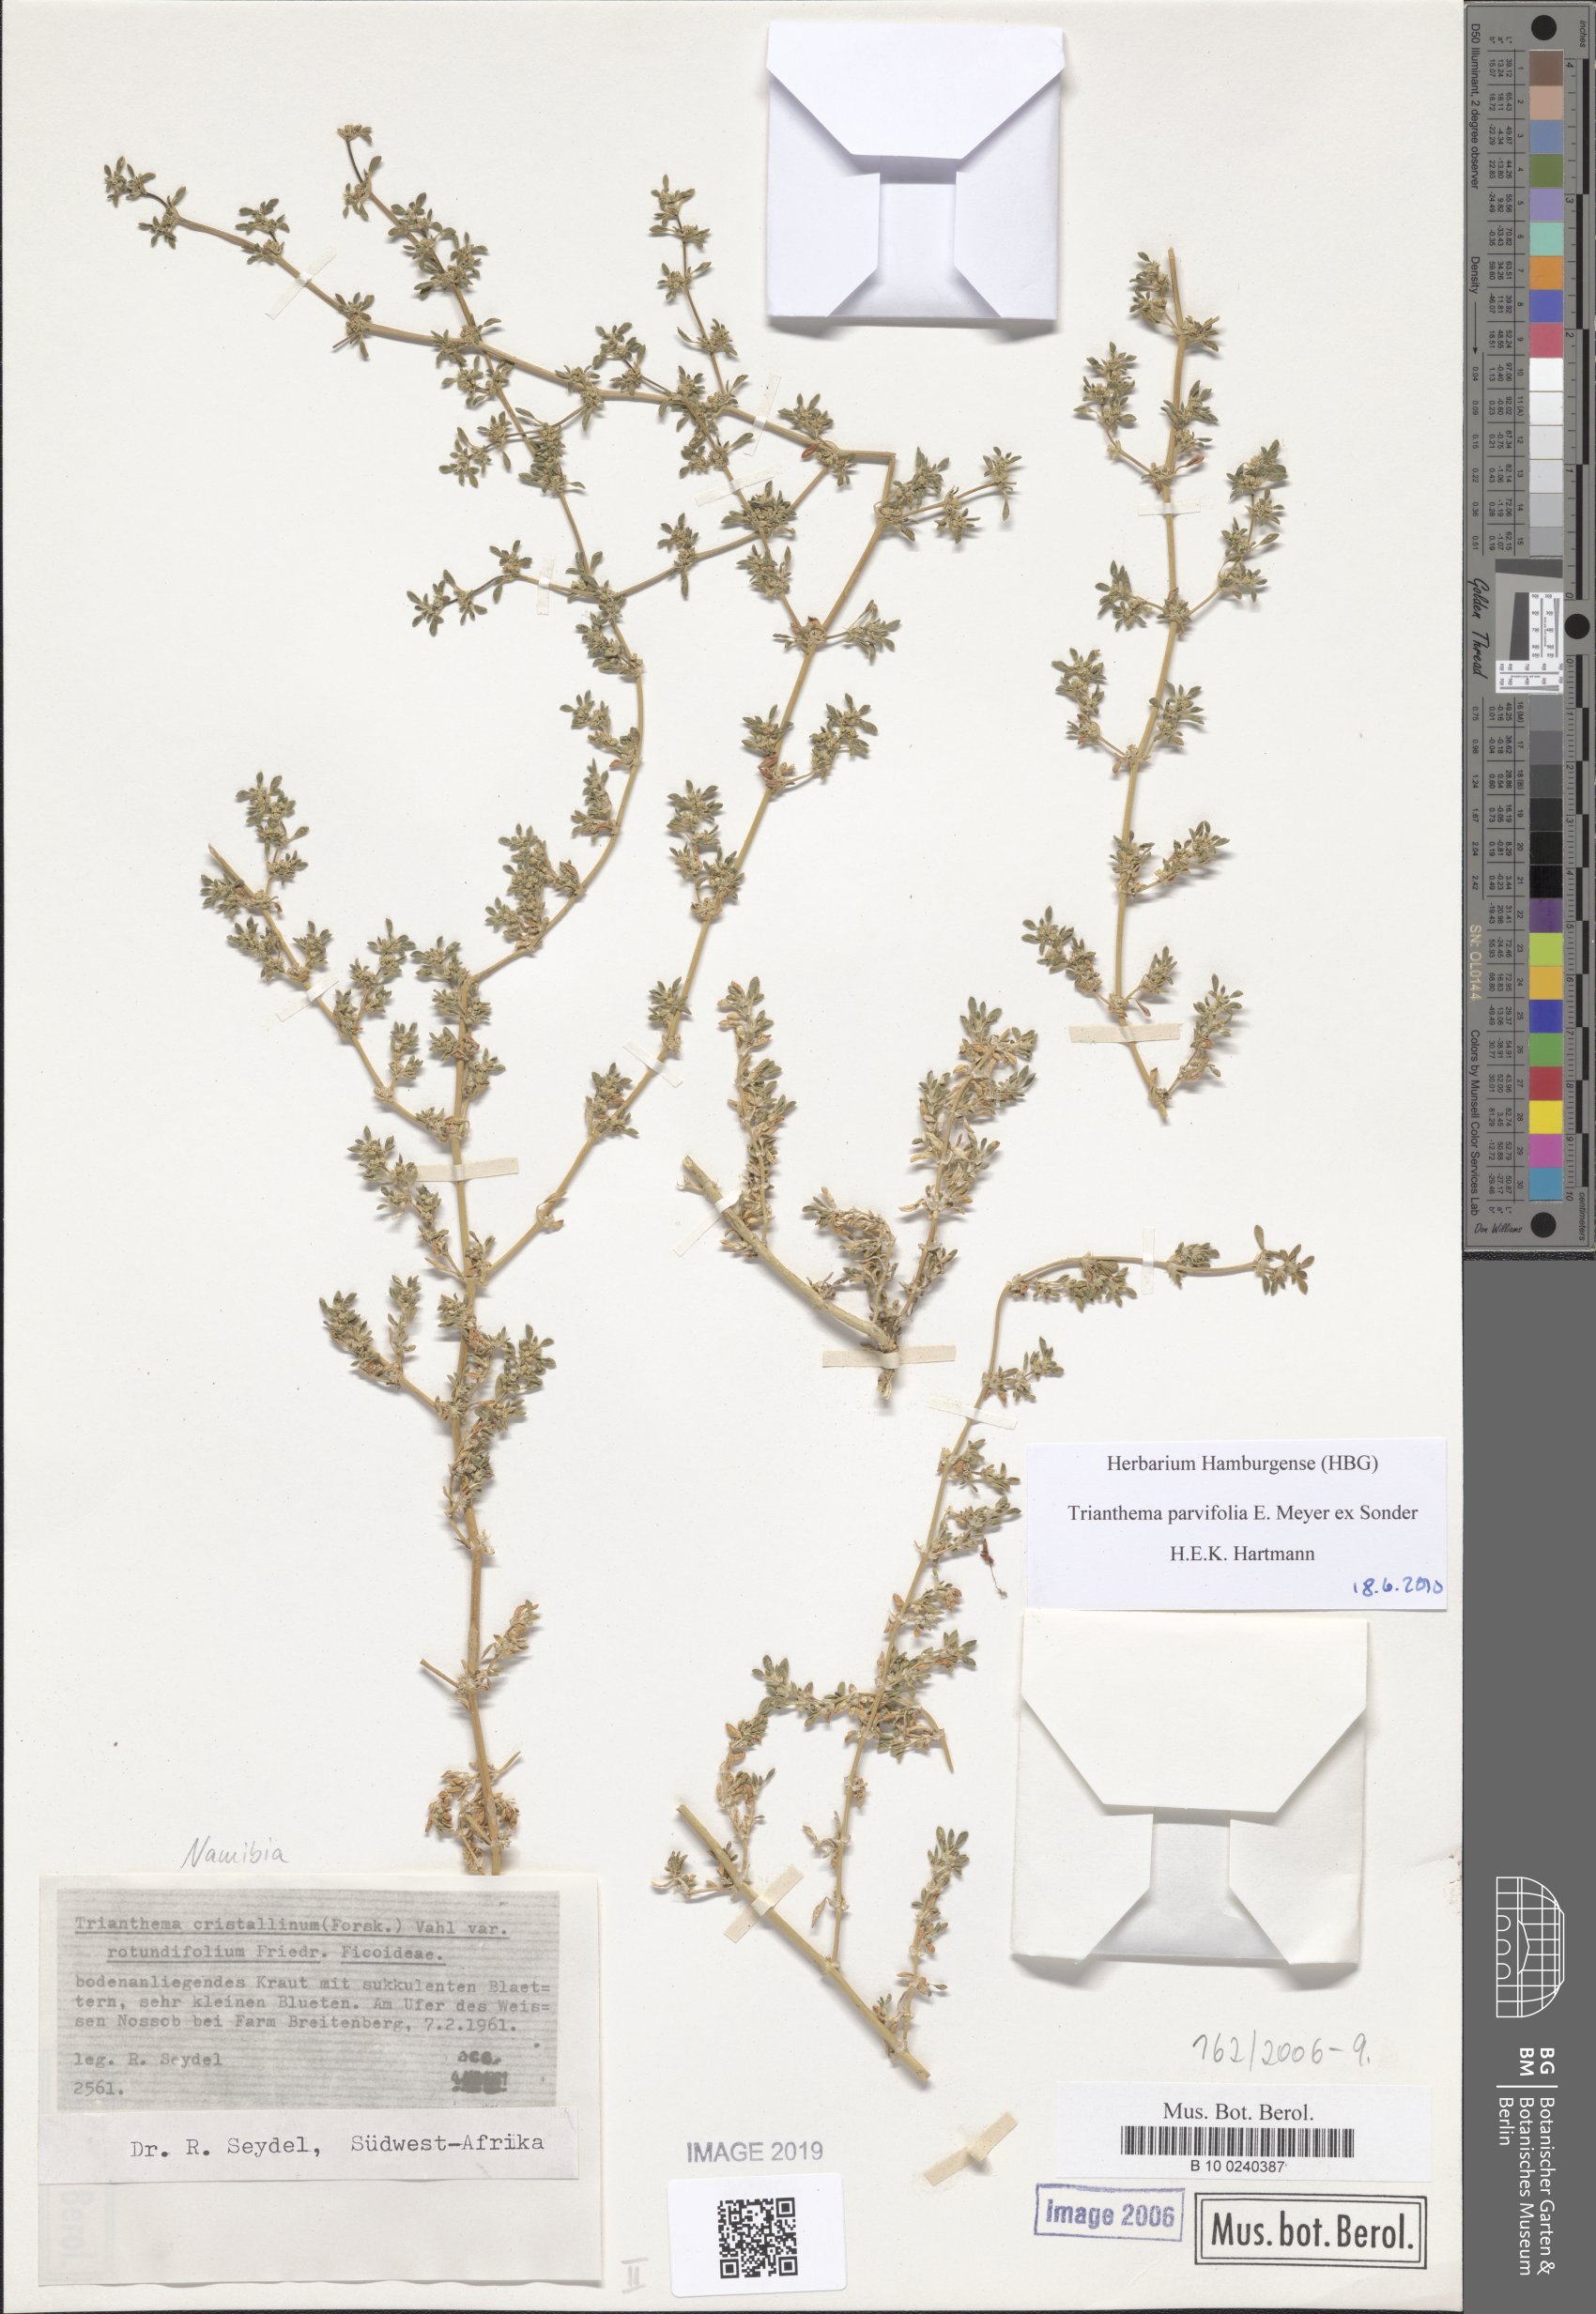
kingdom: Plantae
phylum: Tracheophyta
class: Magnoliopsida
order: Caryophyllales
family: Aizoaceae
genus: Trianthema
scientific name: Trianthema crystallinum
